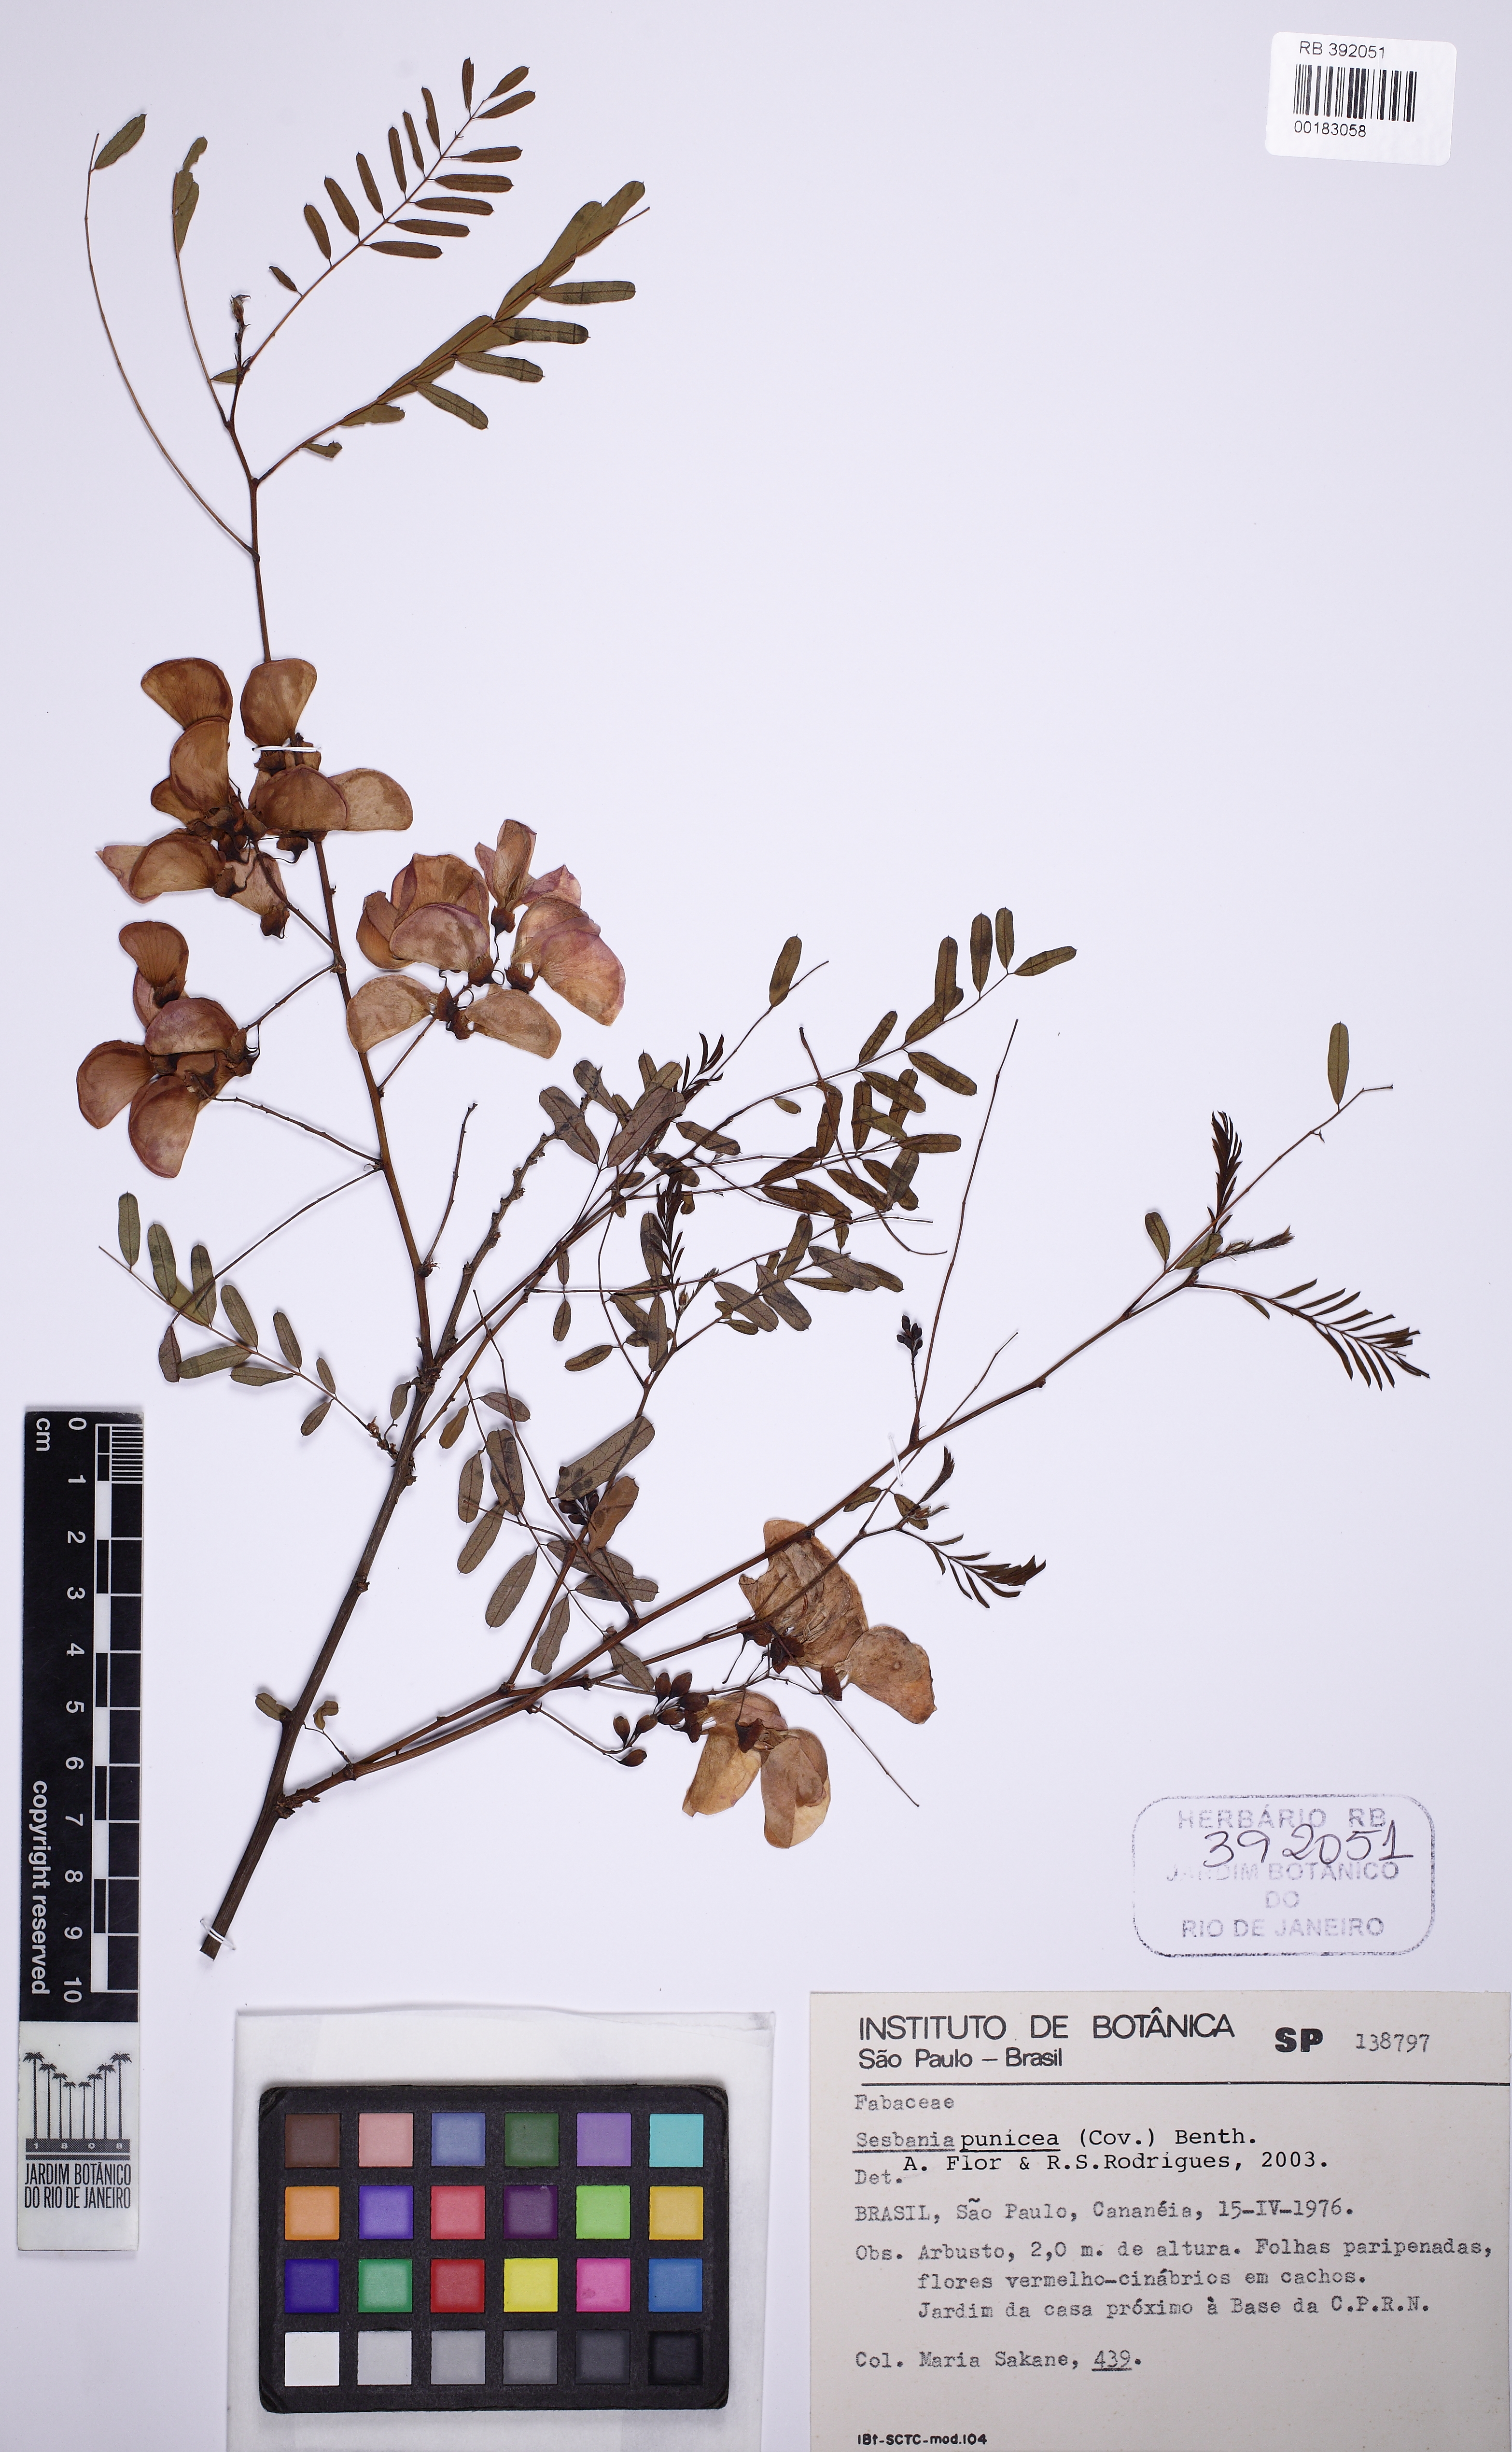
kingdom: Plantae
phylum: Tracheophyta
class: Magnoliopsida
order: Fabales
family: Fabaceae
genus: Sesbania
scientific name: Sesbania punicea
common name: Rattlebox
